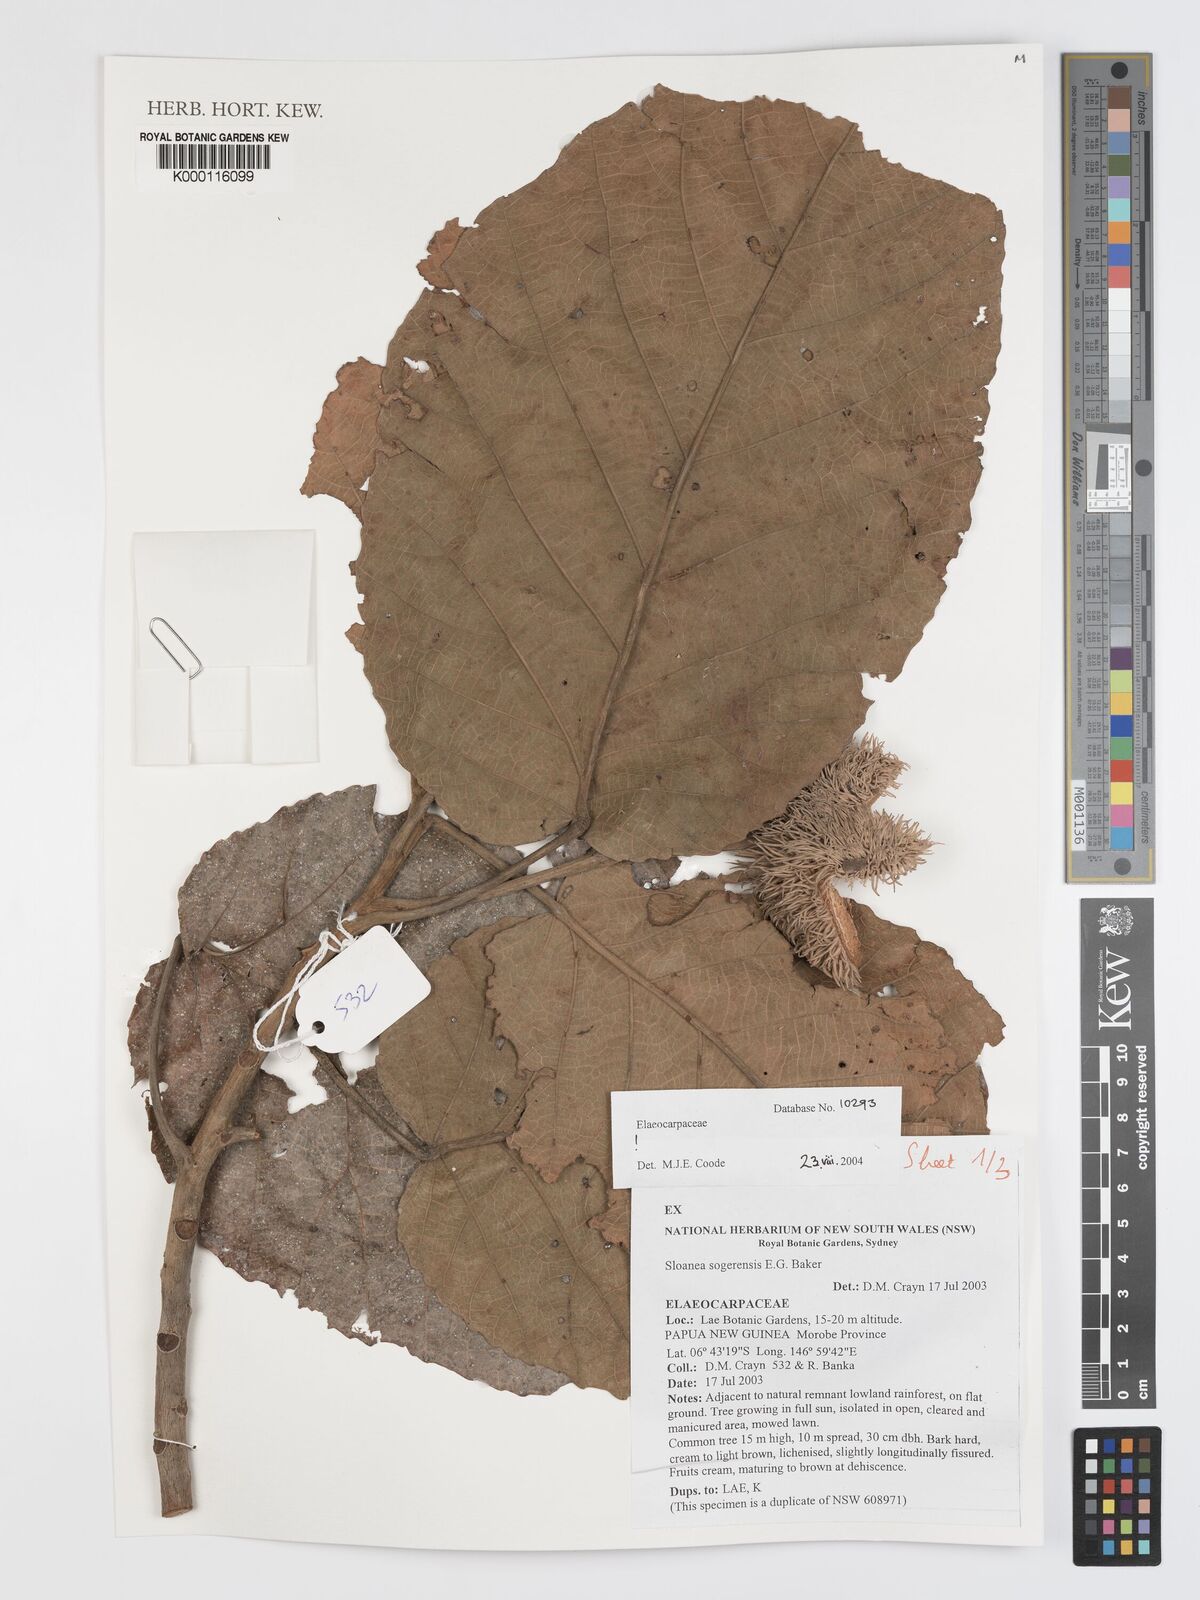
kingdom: Plantae
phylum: Tracheophyta
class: Magnoliopsida
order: Oxalidales
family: Elaeocarpaceae
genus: Sloanea
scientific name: Sloanea sogerensis
